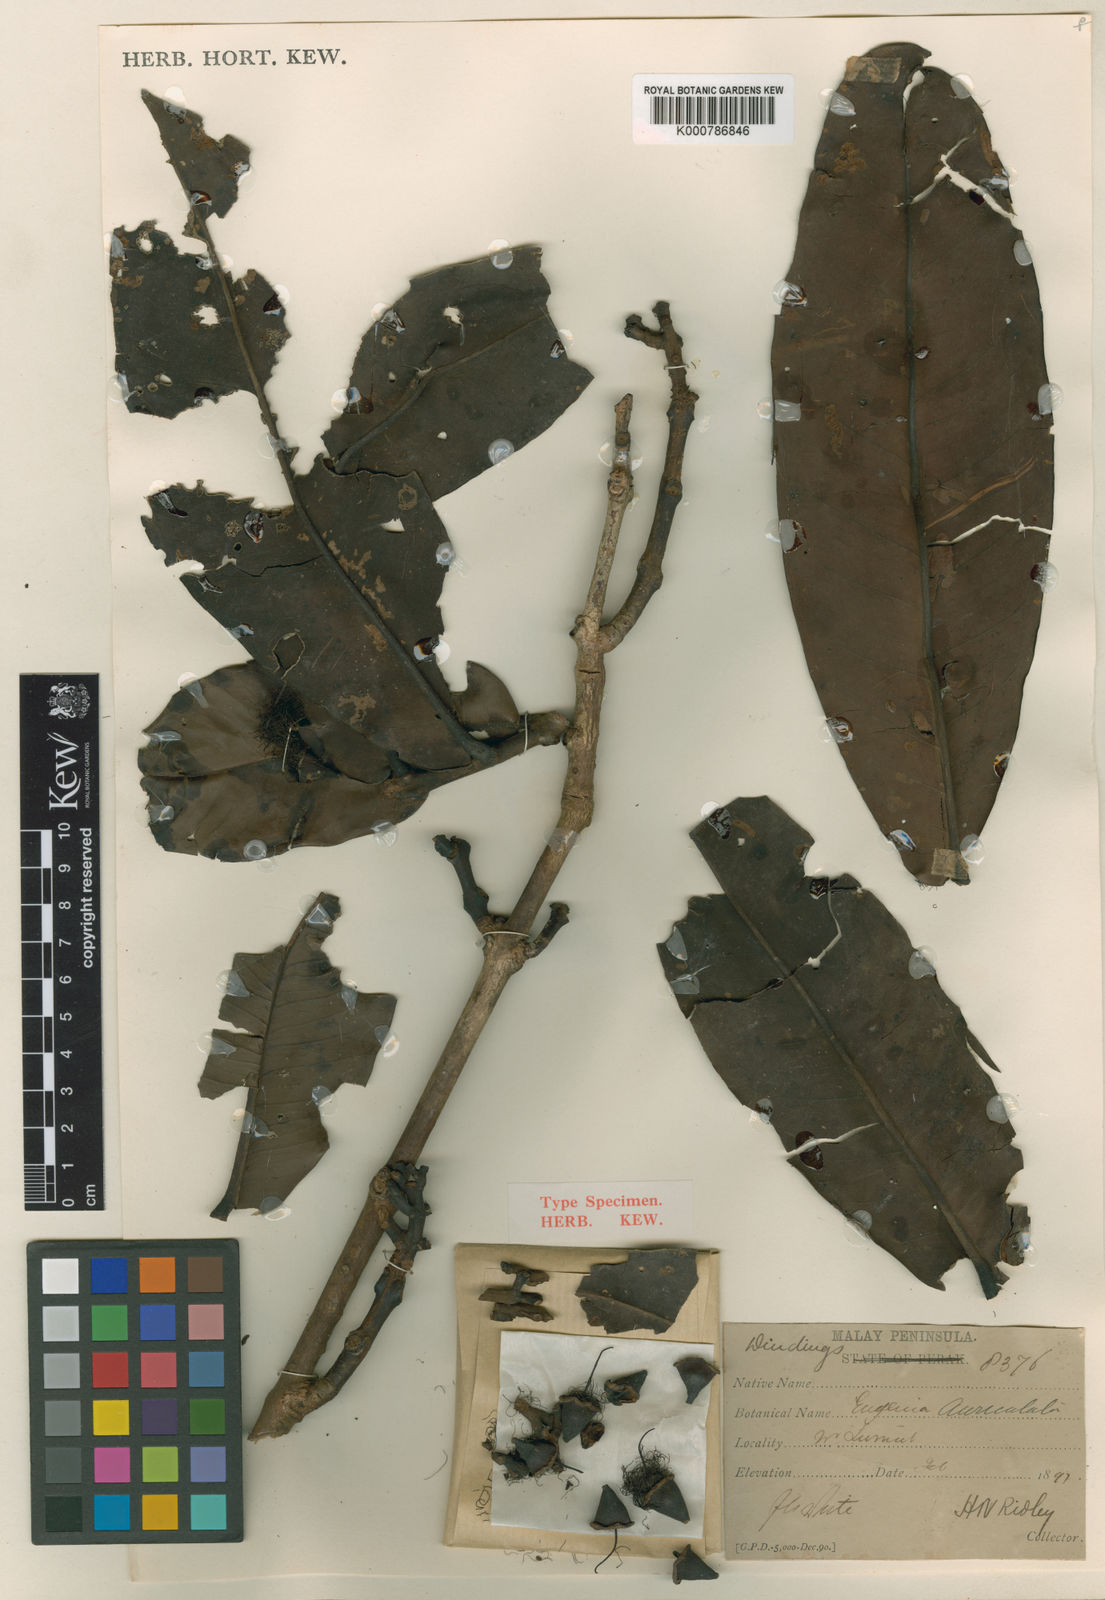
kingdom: Plantae
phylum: Tracheophyta
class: Magnoliopsida
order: Myrtales
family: Myrtaceae
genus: Syzygium
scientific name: Syzygium hendersonii
